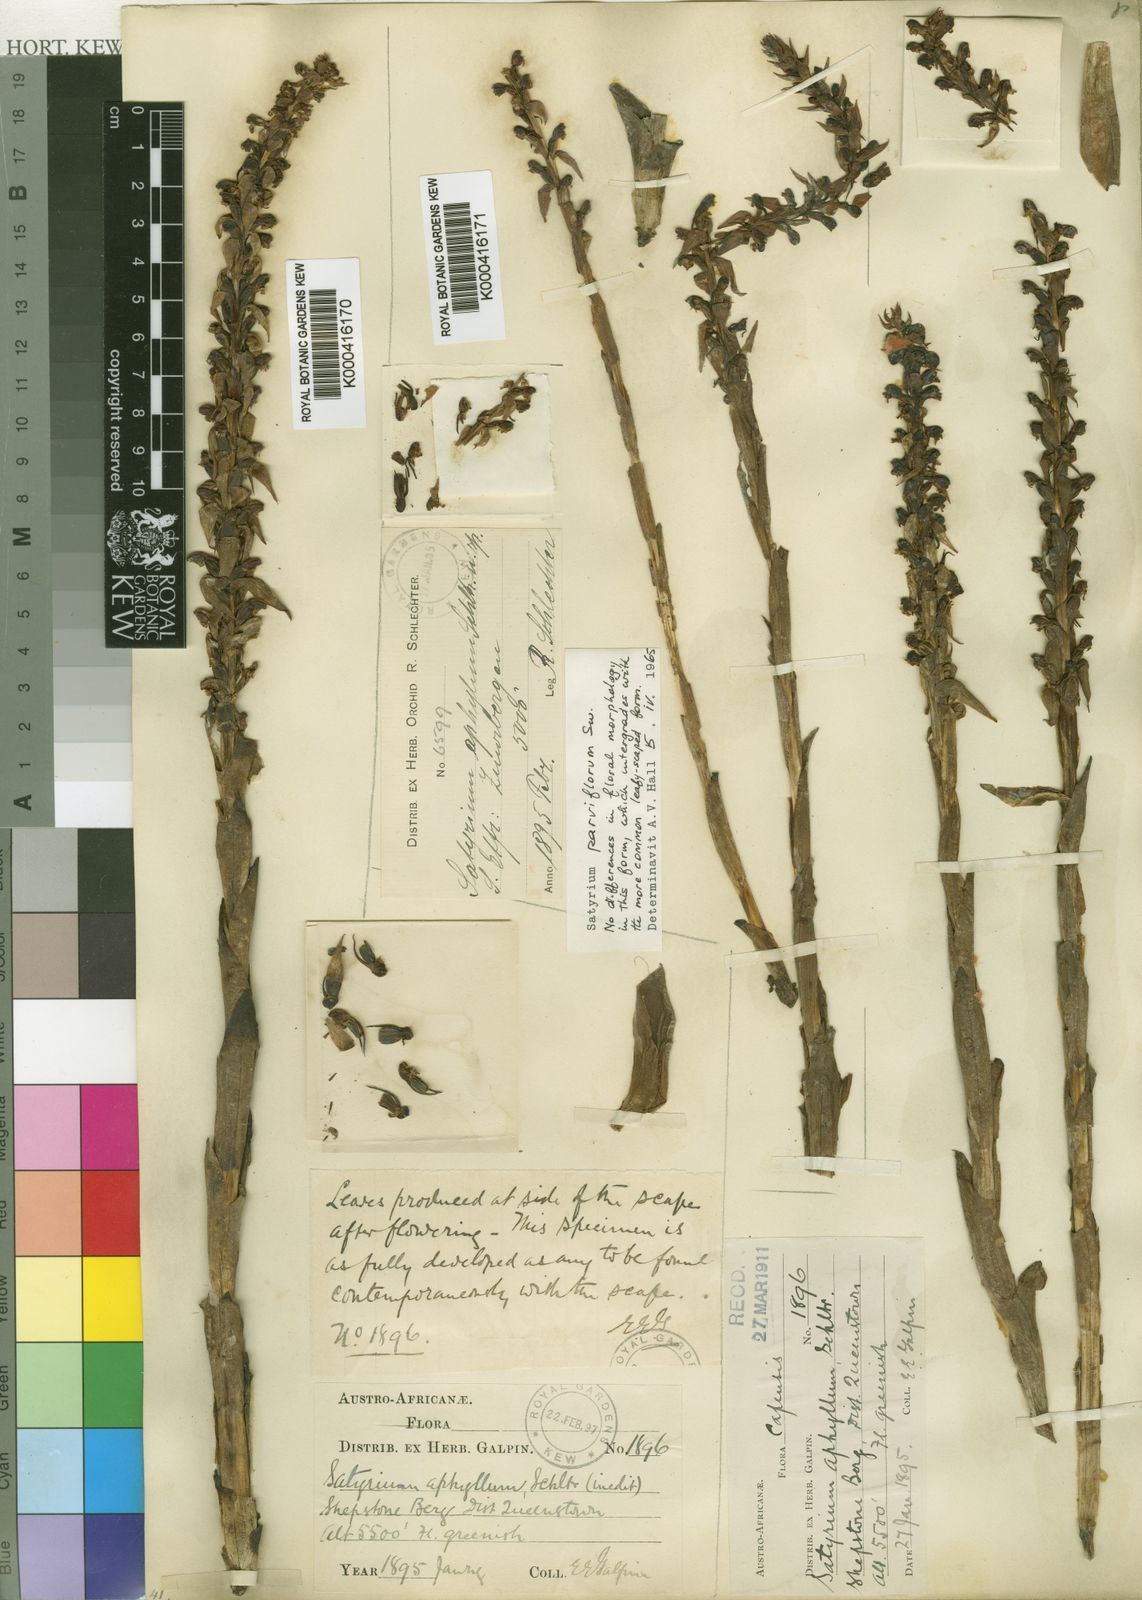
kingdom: Plantae
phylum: Tracheophyta
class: Liliopsida
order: Asparagales
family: Orchidaceae
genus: Satyrium
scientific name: Satyrium parviflorum
